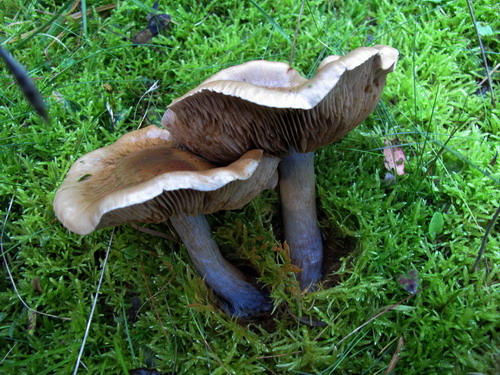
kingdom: Fungi
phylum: Basidiomycota
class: Agaricomycetes
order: Agaricales
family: Cortinariaceae
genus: Thaxterogaster
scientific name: Thaxterogaster purpurascens
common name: purpurbrun slørhat
